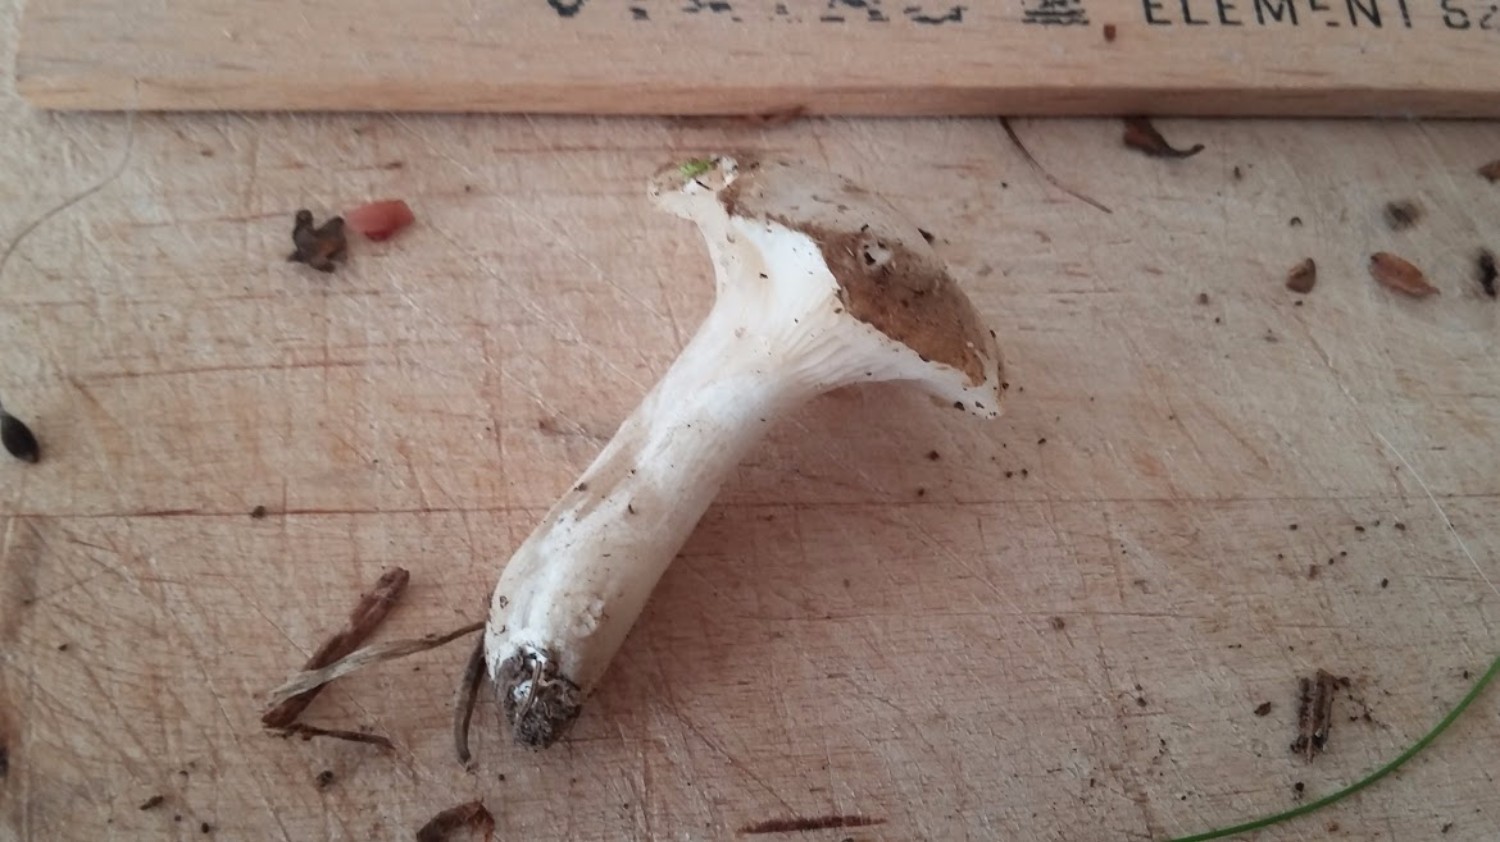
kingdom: Fungi
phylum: Basidiomycota
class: Agaricomycetes
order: Agaricales
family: Hygrophoraceae
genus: Ampulloclitocybe
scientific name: Ampulloclitocybe clavipes
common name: køllefod
